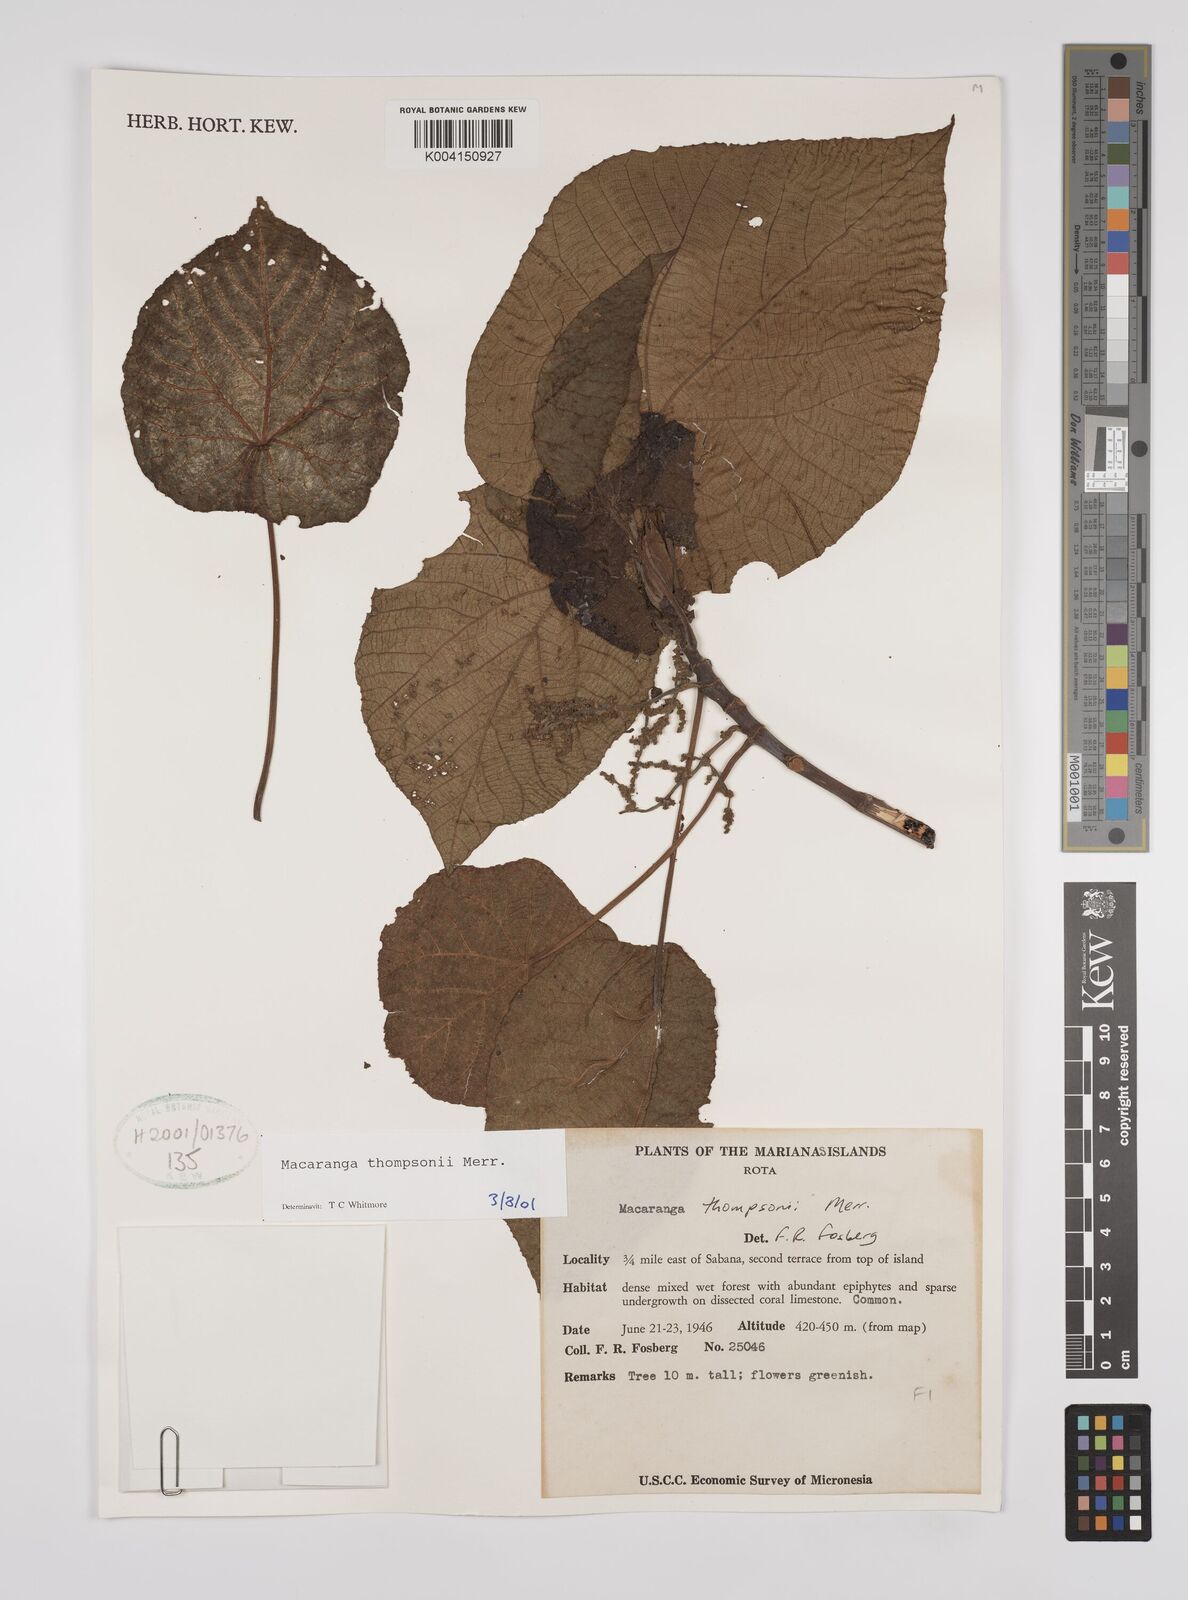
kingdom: Plantae
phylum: Tracheophyta
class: Magnoliopsida
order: Malpighiales
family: Euphorbiaceae
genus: Macaranga
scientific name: Macaranga thompsonii
